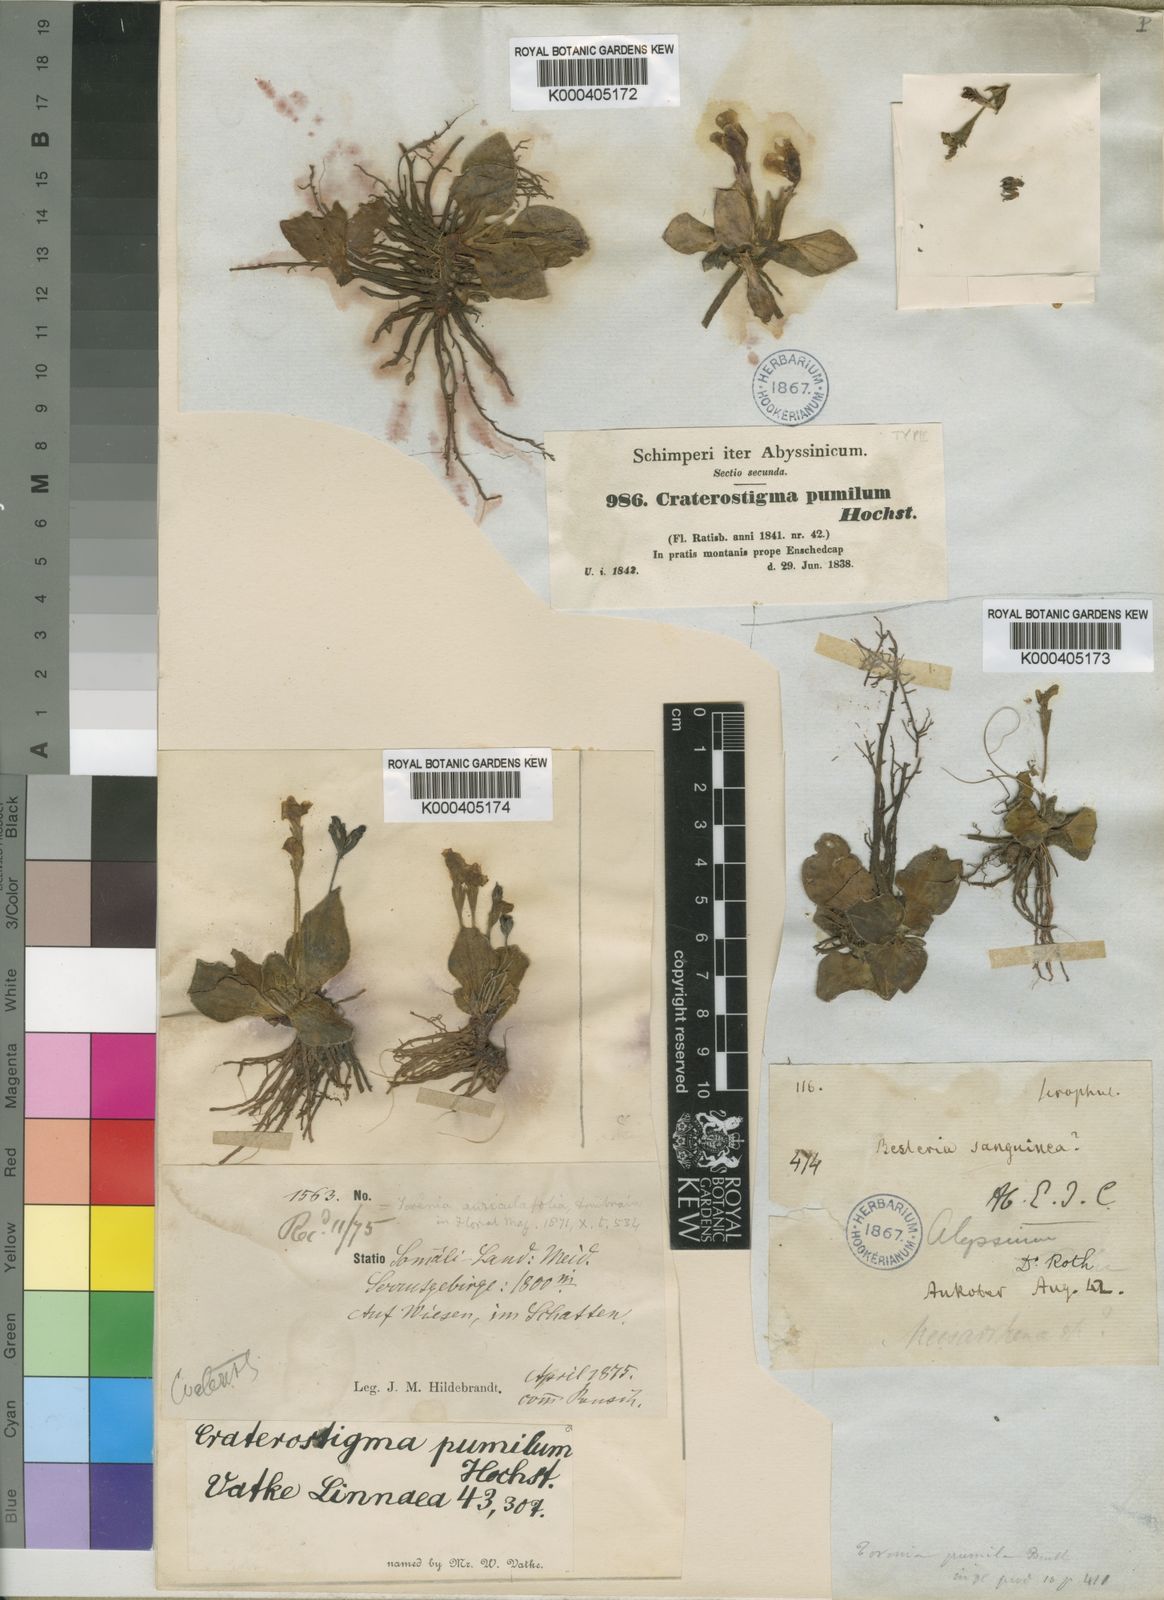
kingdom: Plantae
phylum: Tracheophyta
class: Magnoliopsida
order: Lamiales
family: Linderniaceae
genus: Craterostigma
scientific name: Craterostigma pumilum
